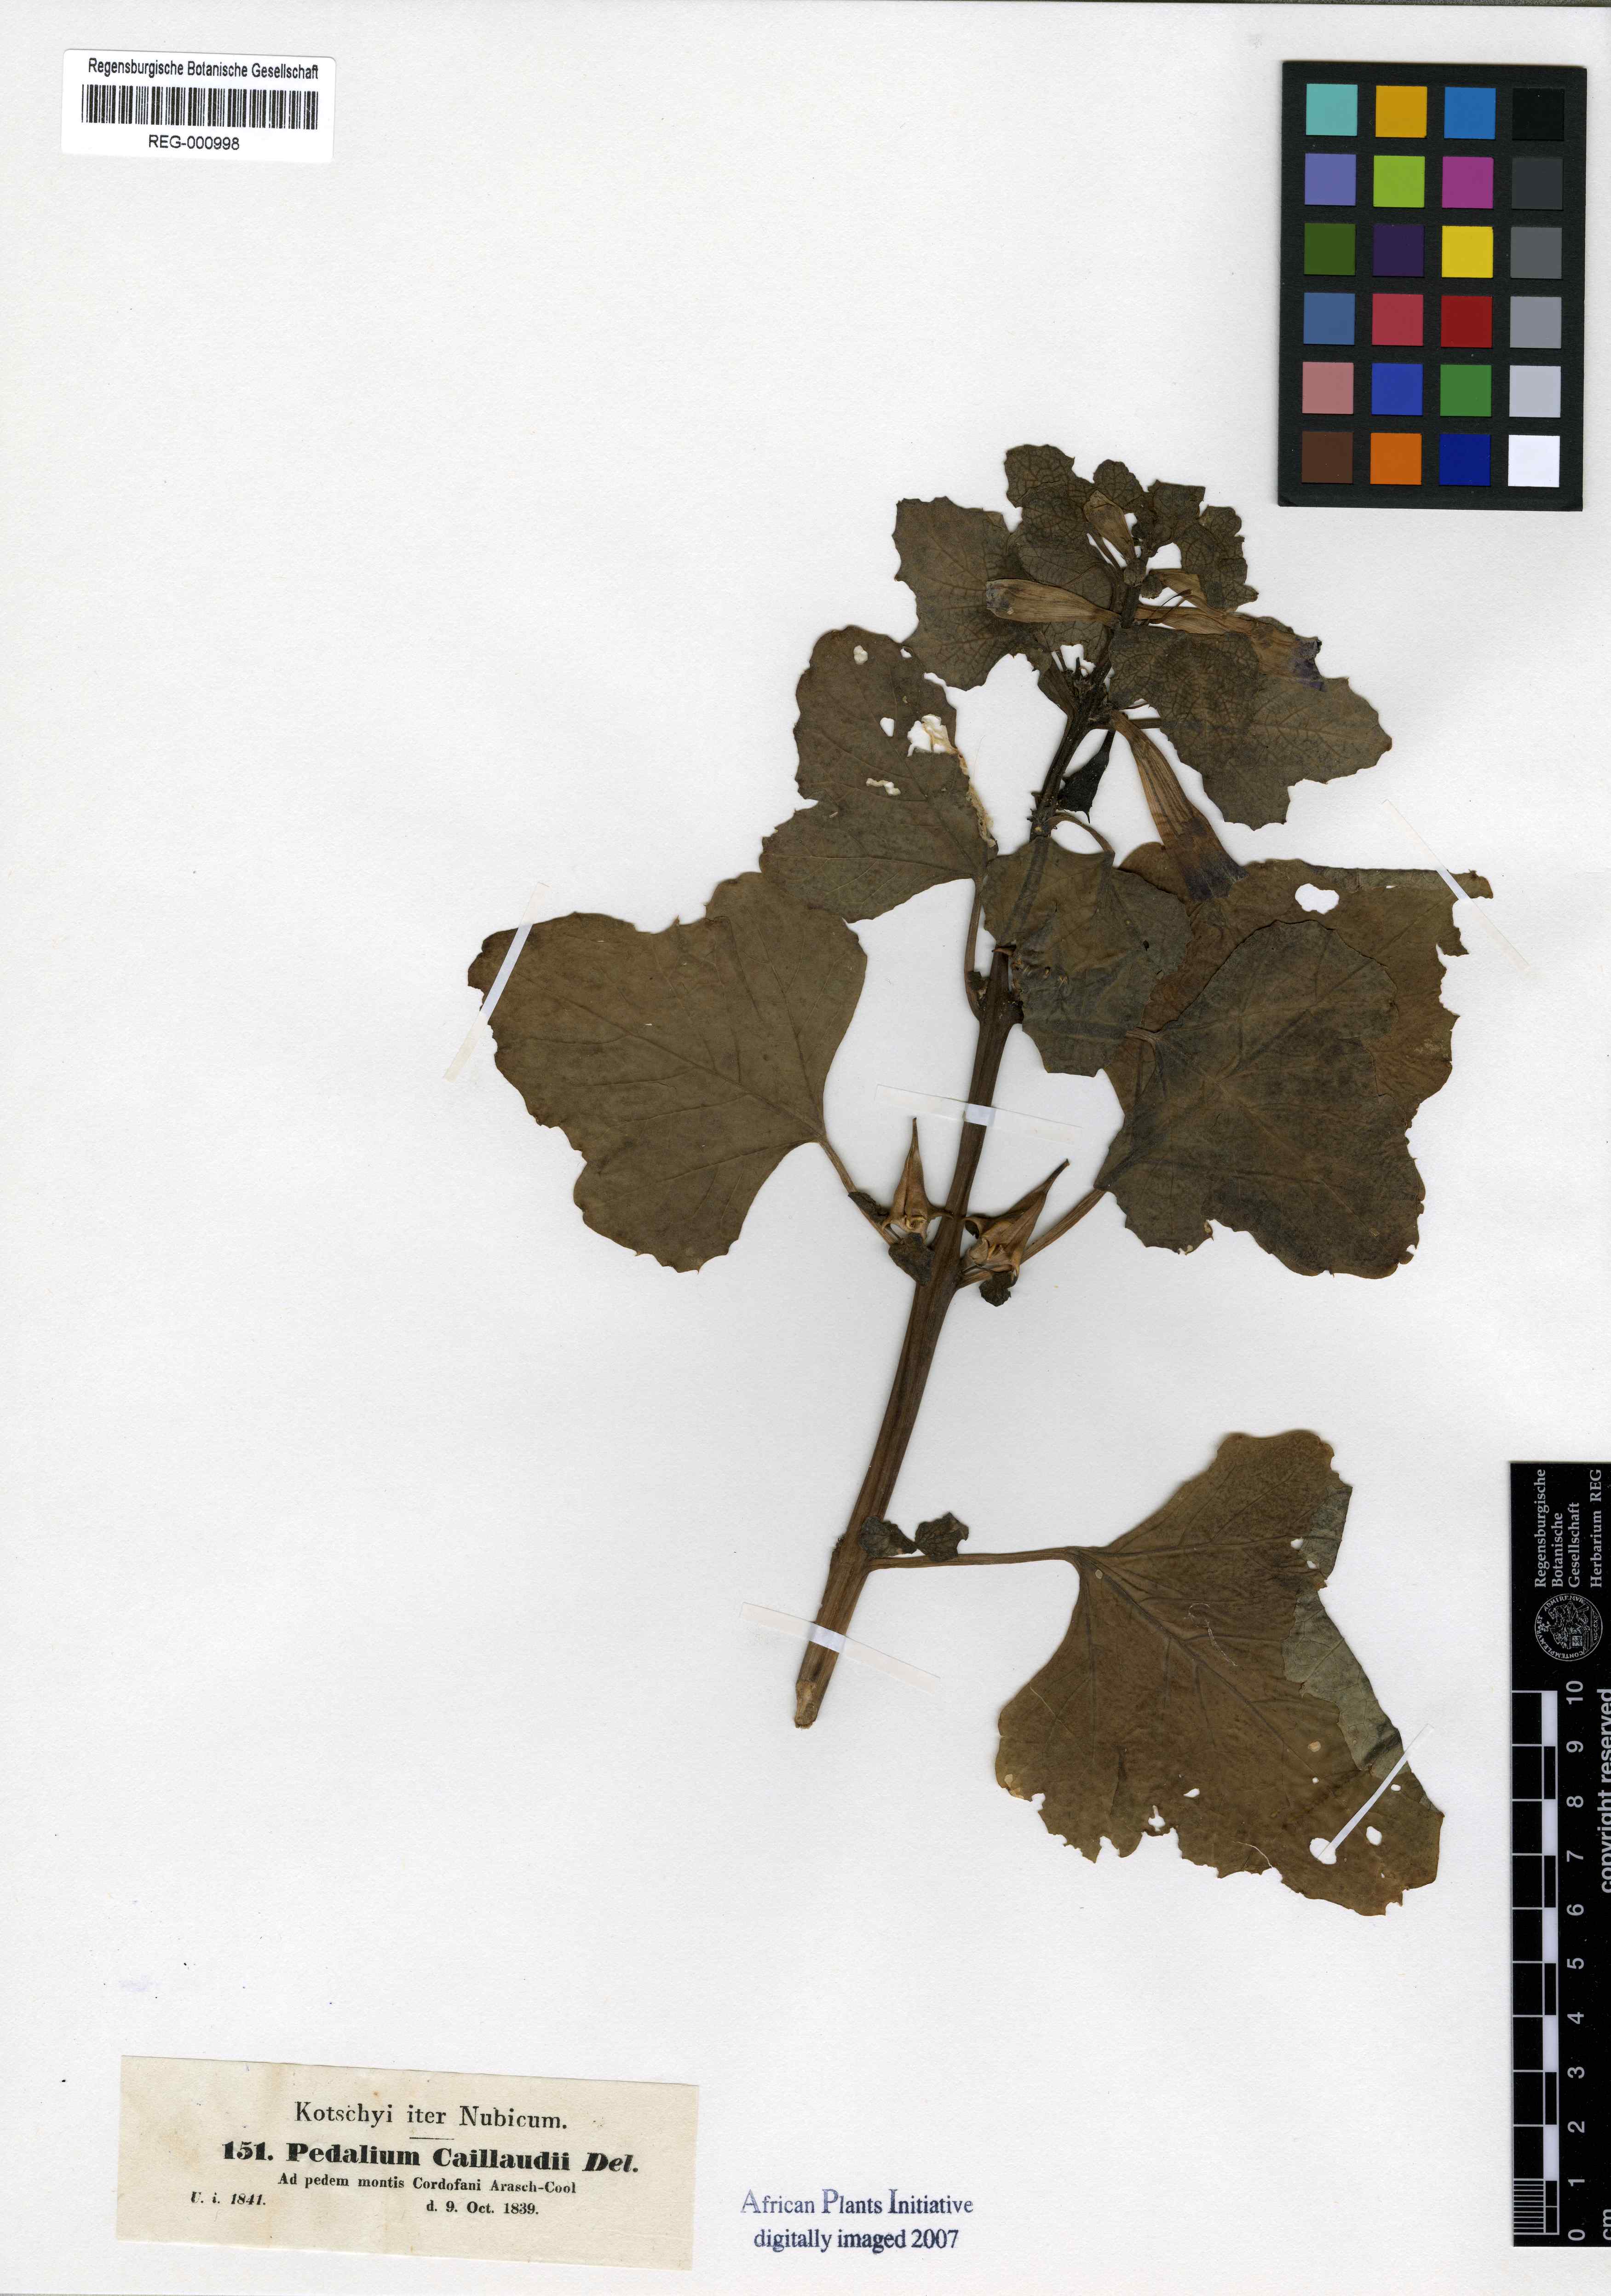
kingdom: Plantae
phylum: Tracheophyta
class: Magnoliopsida
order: Lamiales
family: Pedaliaceae
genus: Rogeria
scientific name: Rogeria adenophylla
